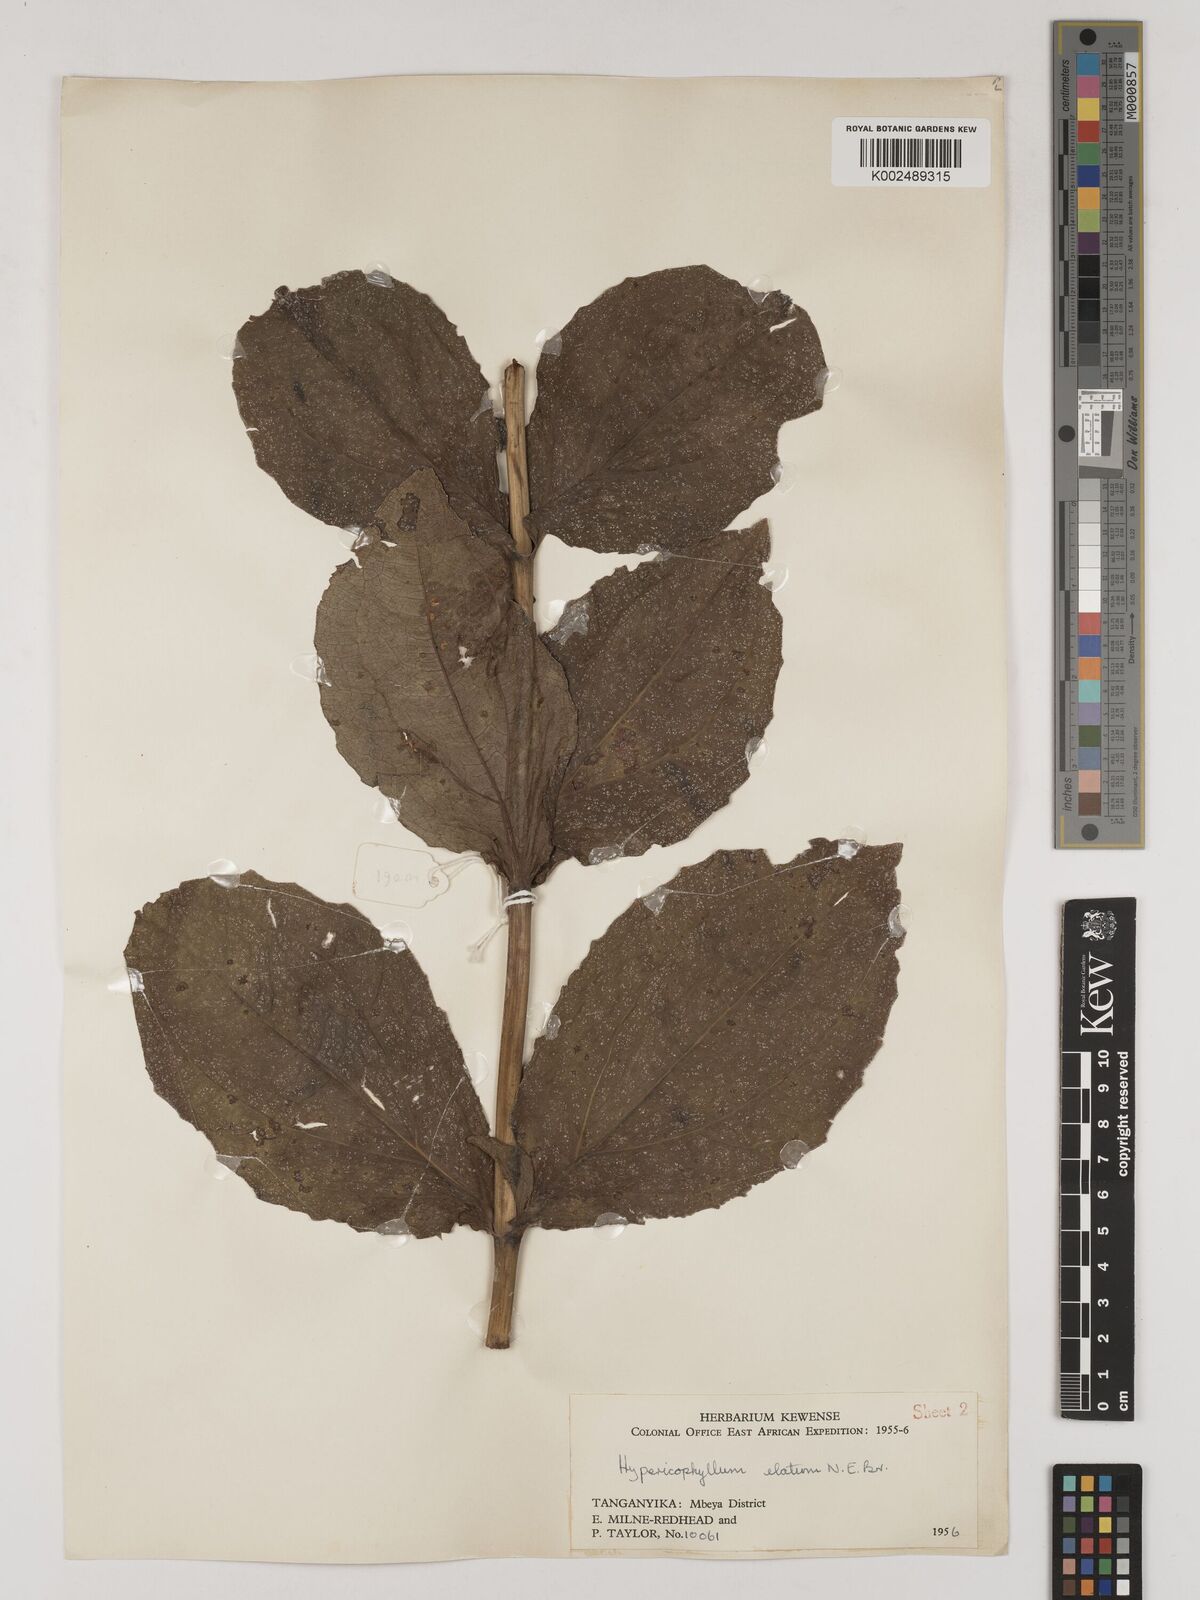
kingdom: Plantae
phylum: Tracheophyta
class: Magnoliopsida
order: Asterales
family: Asteraceae
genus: Hypericophyllum
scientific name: Hypericophyllum elatum
